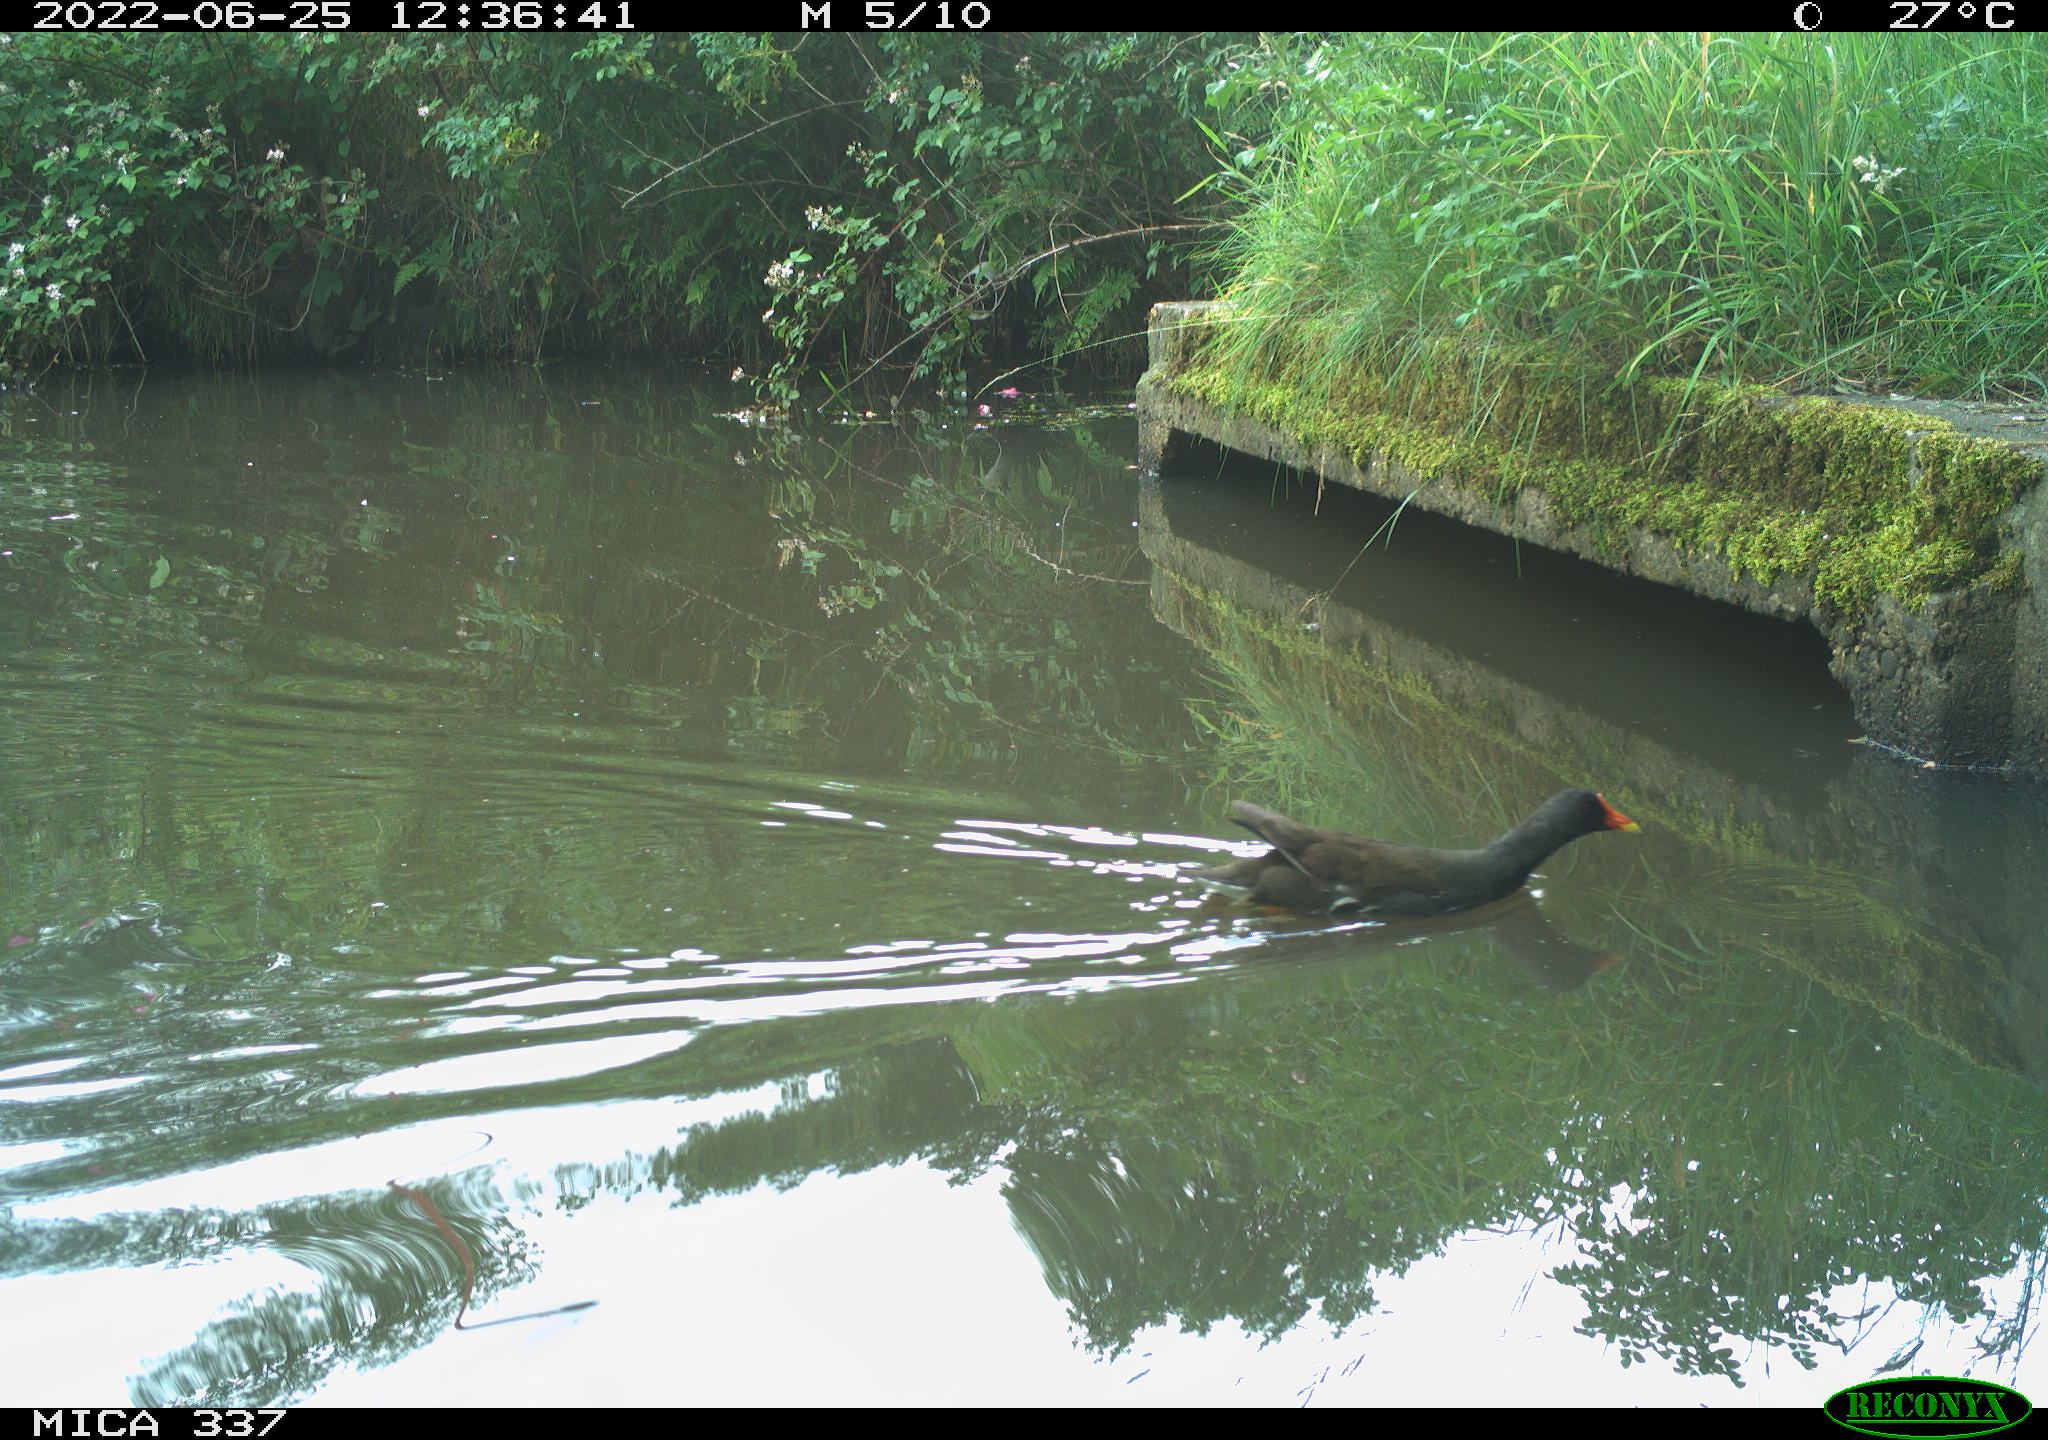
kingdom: Animalia
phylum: Chordata
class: Aves
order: Gruiformes
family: Rallidae
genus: Gallinula
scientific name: Gallinula chloropus
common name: Common moorhen
